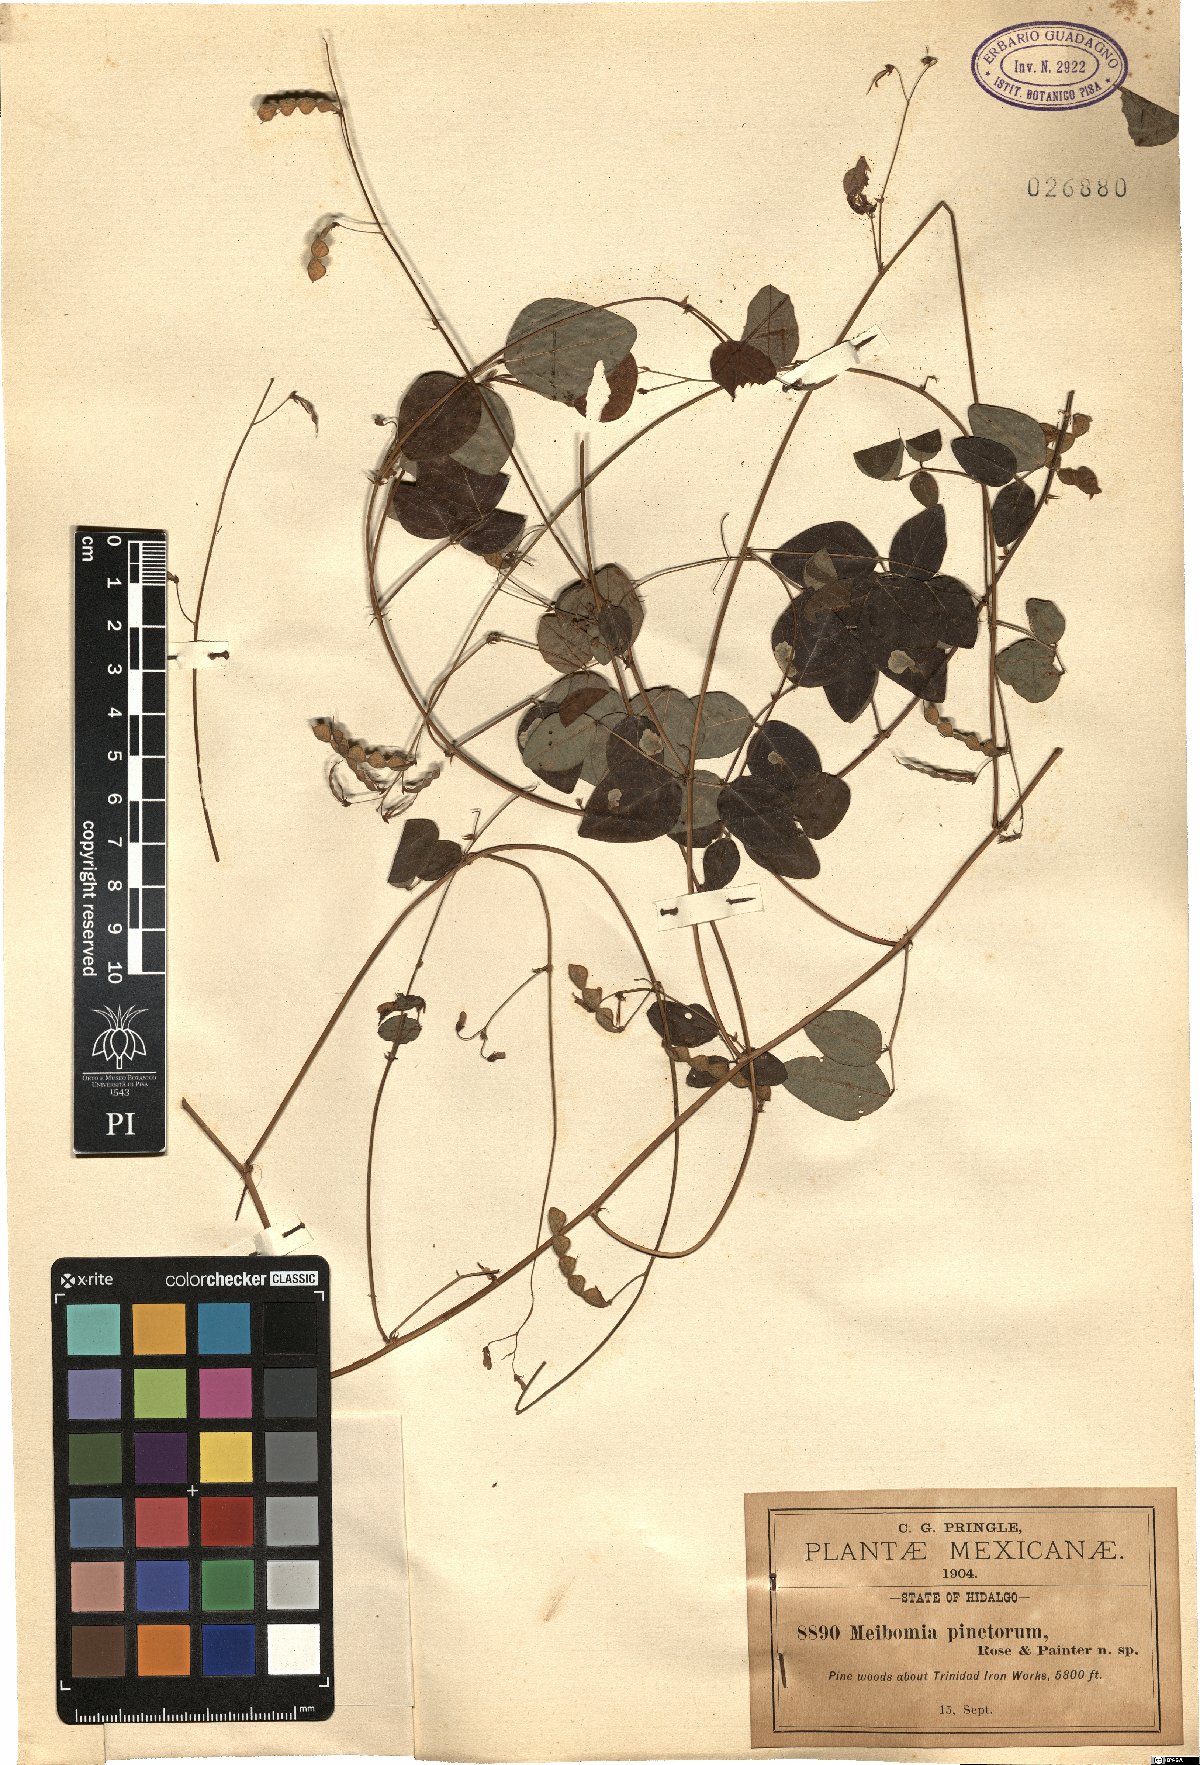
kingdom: Plantae
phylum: Tracheophyta
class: Magnoliopsida
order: Fabales
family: Fabaceae
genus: Desmodium
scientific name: Desmodium leptoclados
